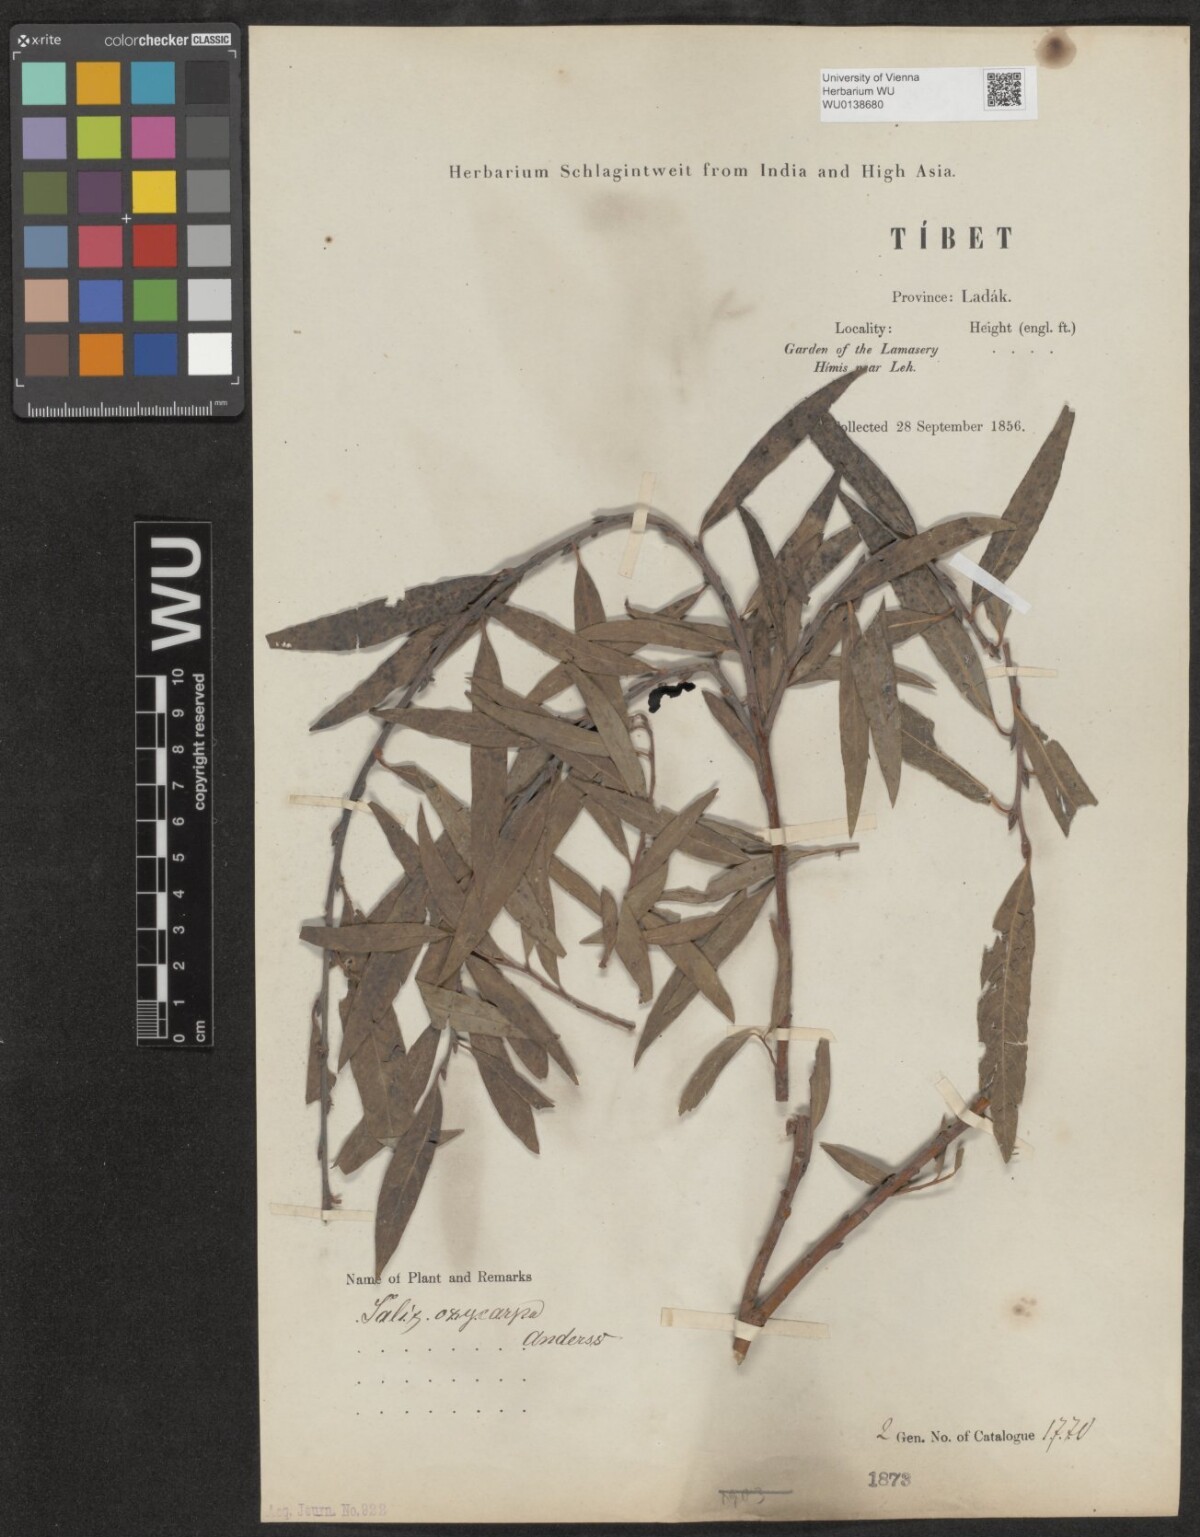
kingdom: Plantae
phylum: Tracheophyta
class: Magnoliopsida
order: Malpighiales
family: Salicaceae
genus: Salix
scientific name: Salix sericocarpa
